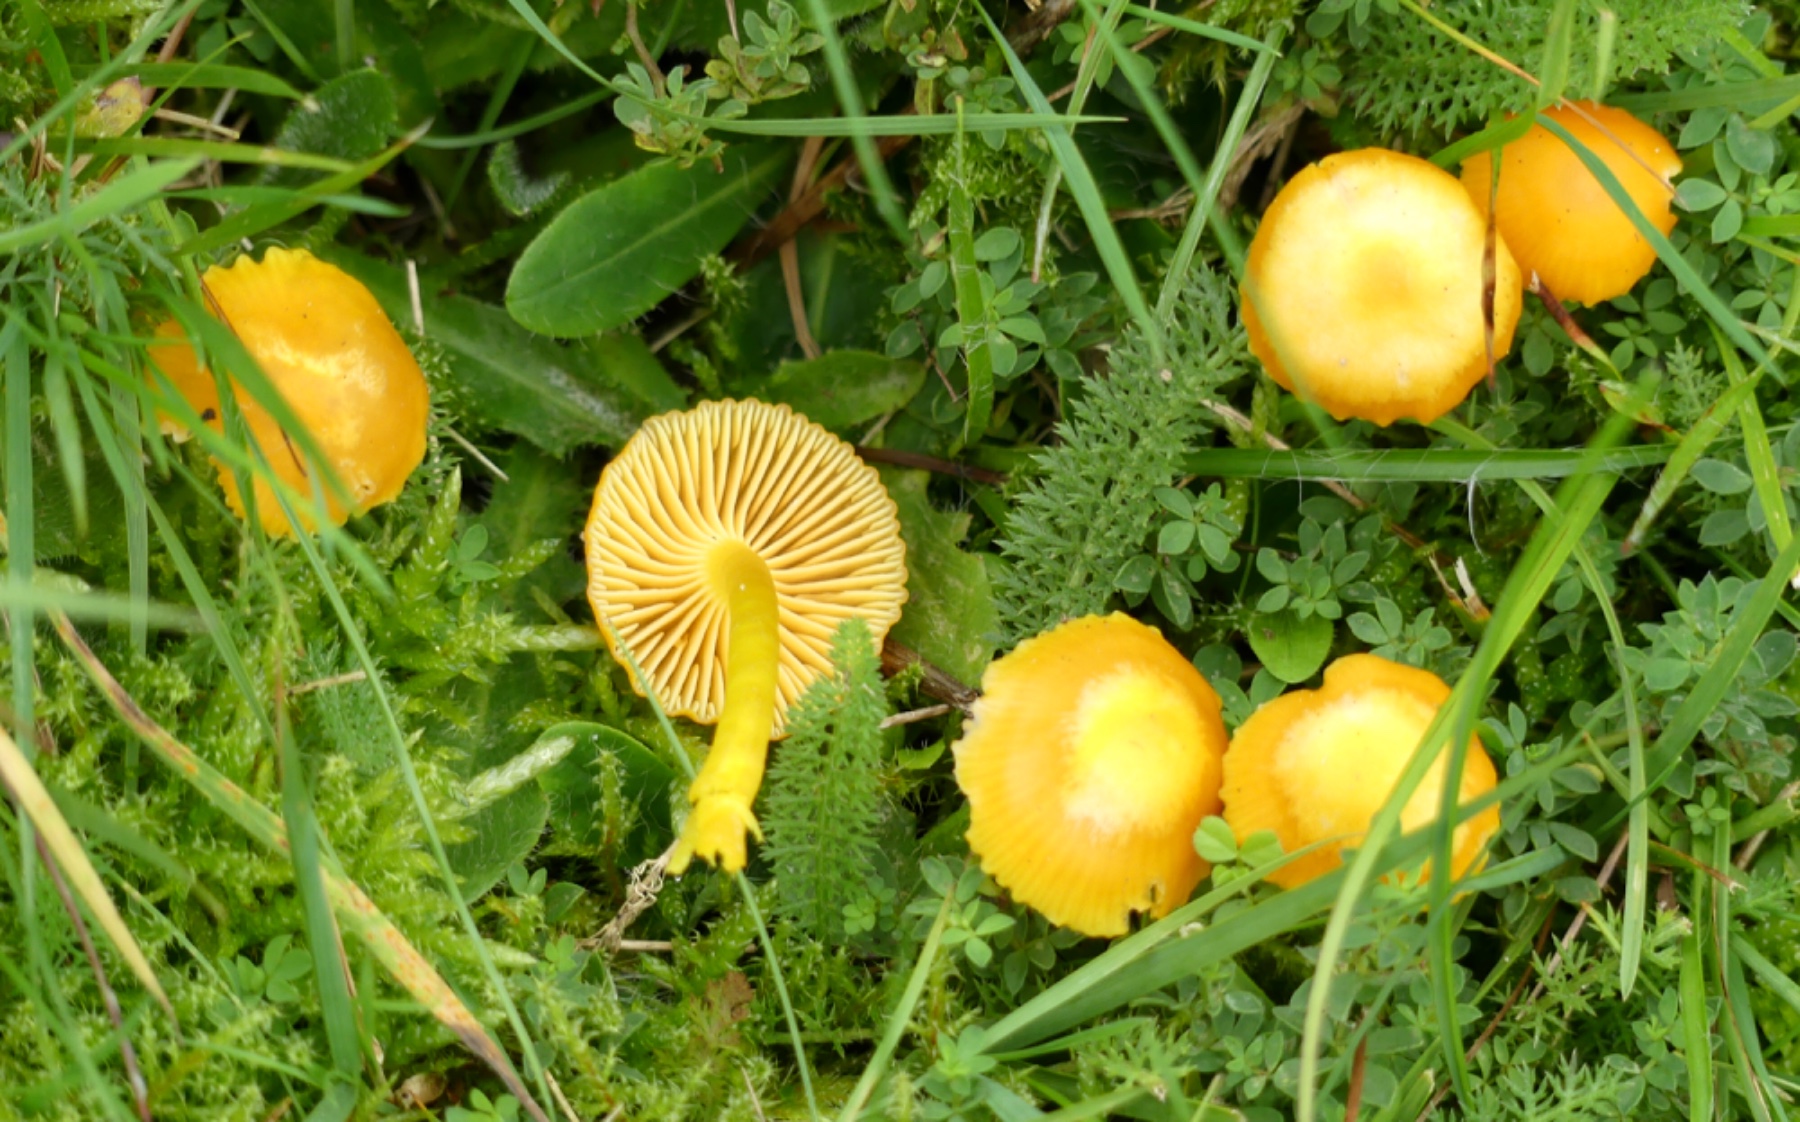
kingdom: Fungi
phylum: Basidiomycota
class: Agaricomycetes
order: Agaricales
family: Hygrophoraceae
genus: Hygrocybe
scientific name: Hygrocybe ceracea
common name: voksgul vokshat
